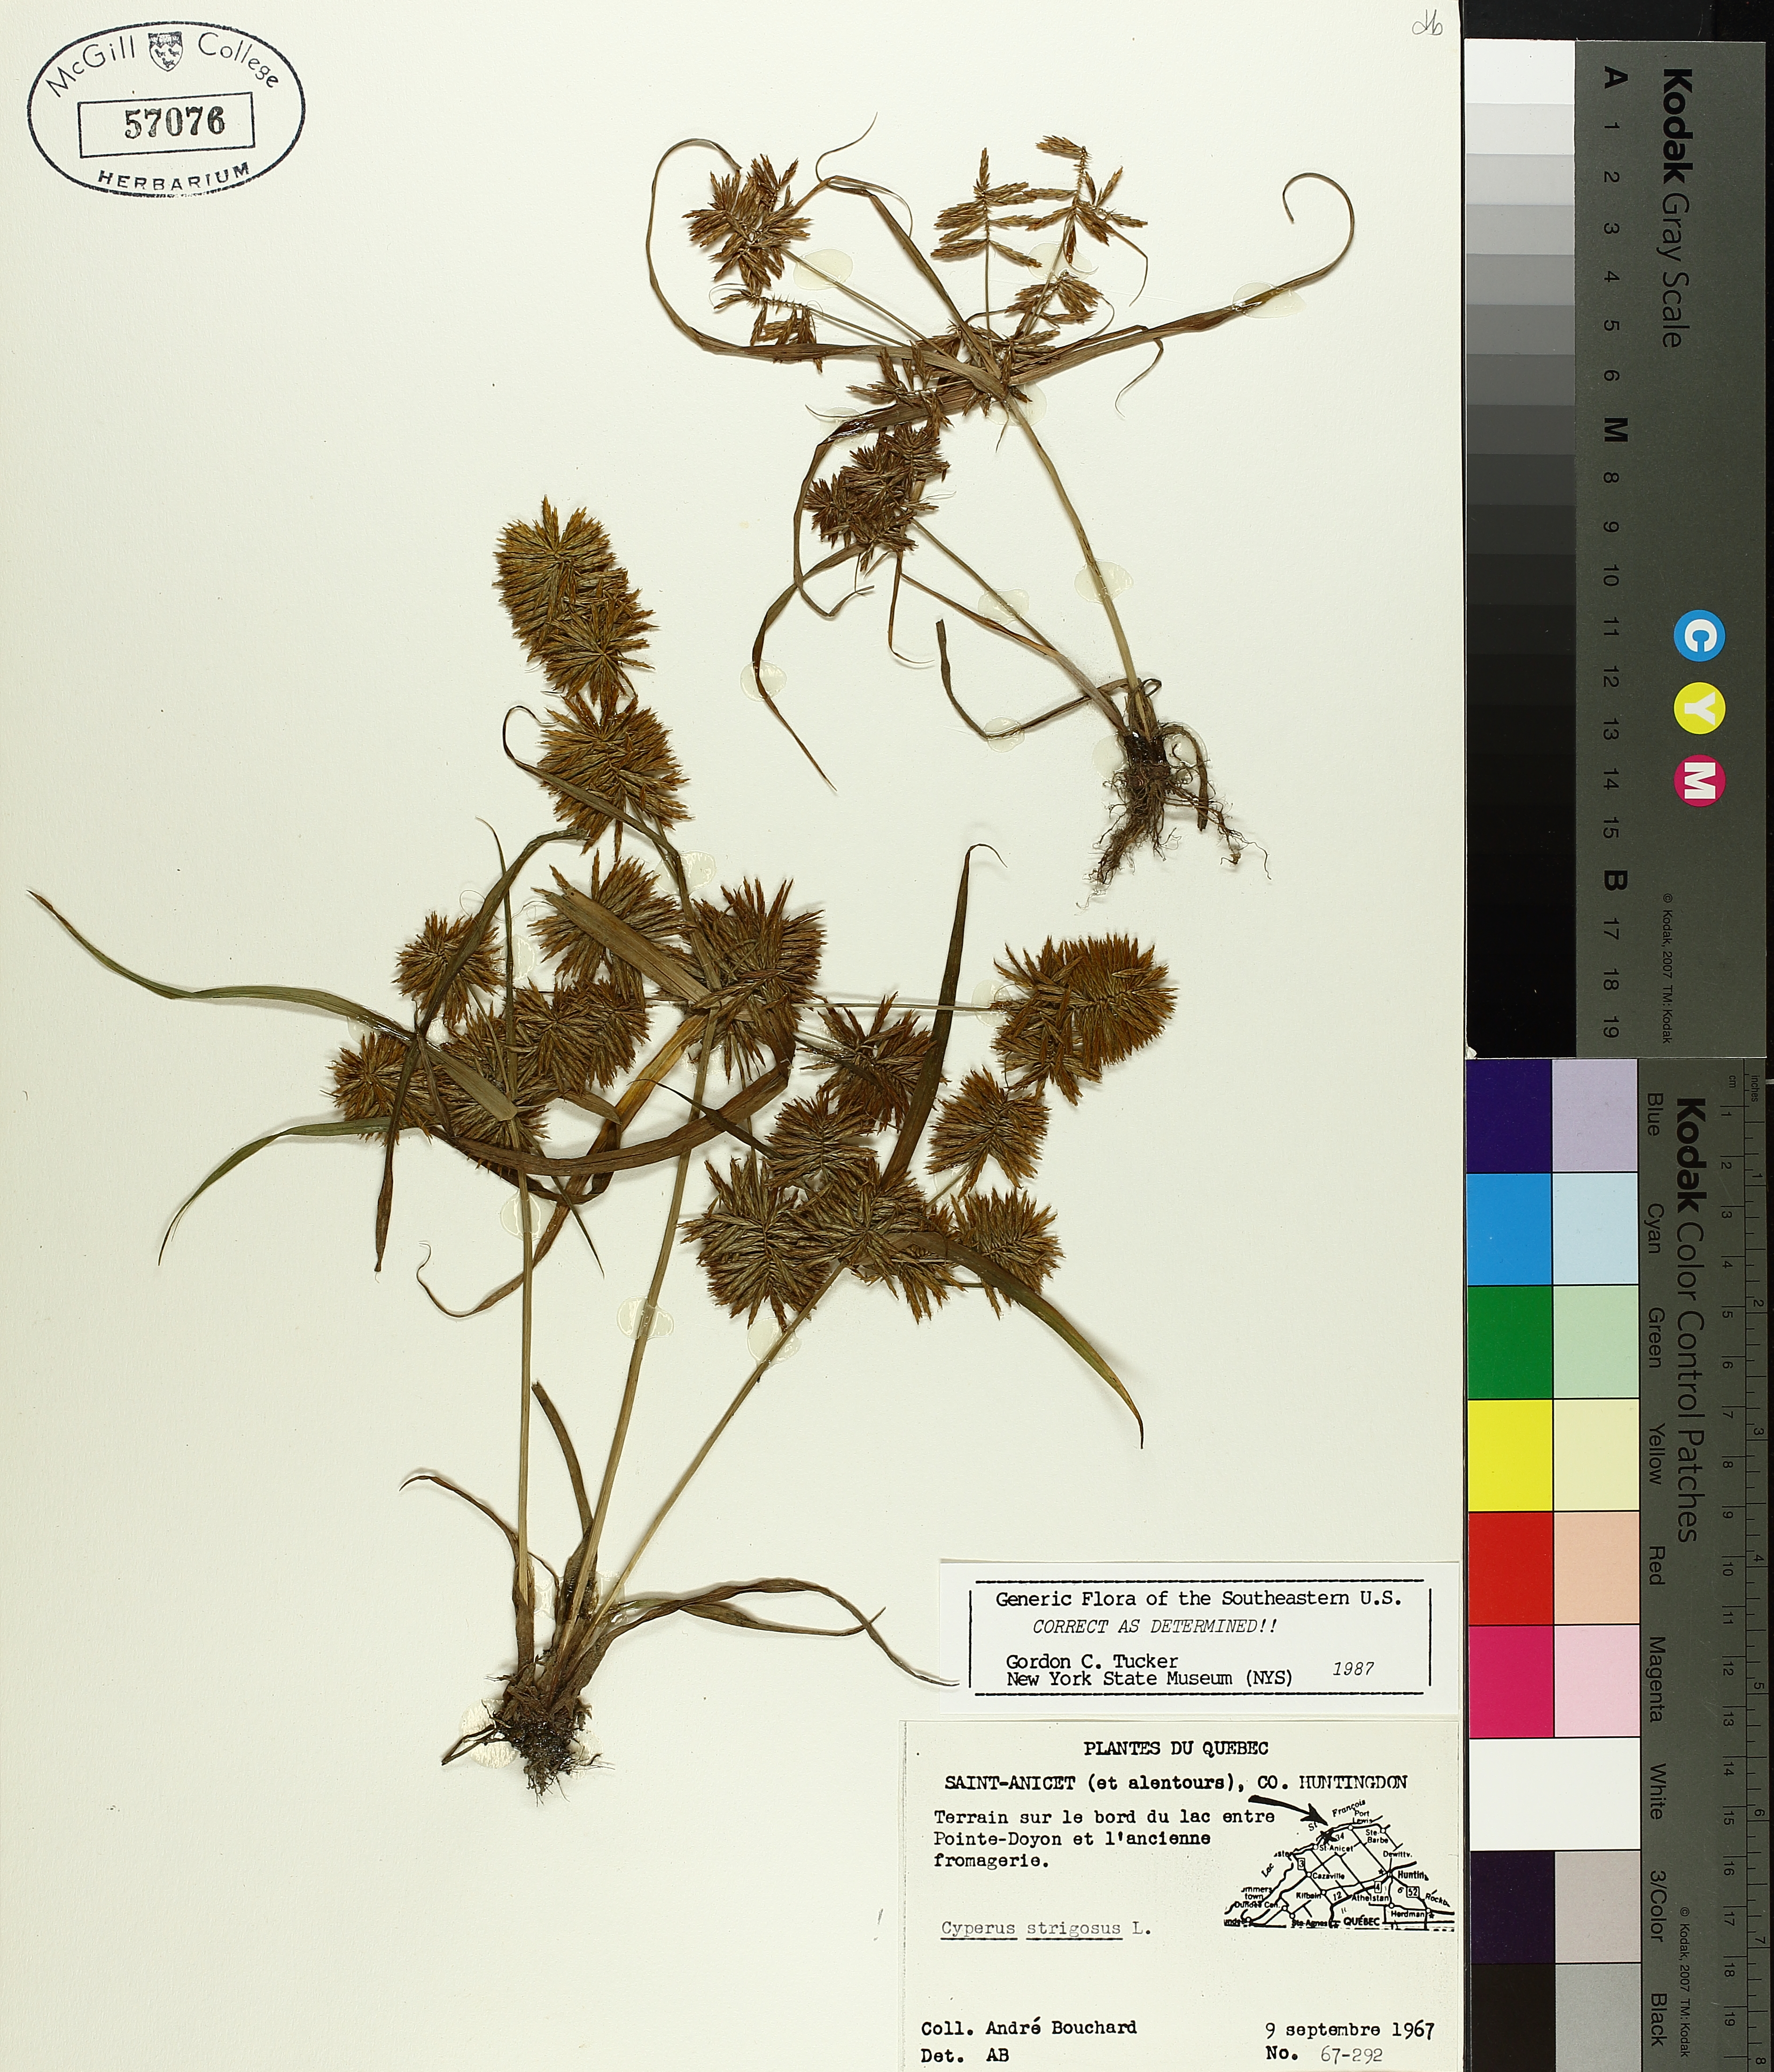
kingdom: Plantae
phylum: Tracheophyta
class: Liliopsida
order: Poales
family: Cyperaceae
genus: Cyperus
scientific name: Cyperus strigosus
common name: False nutsedge
